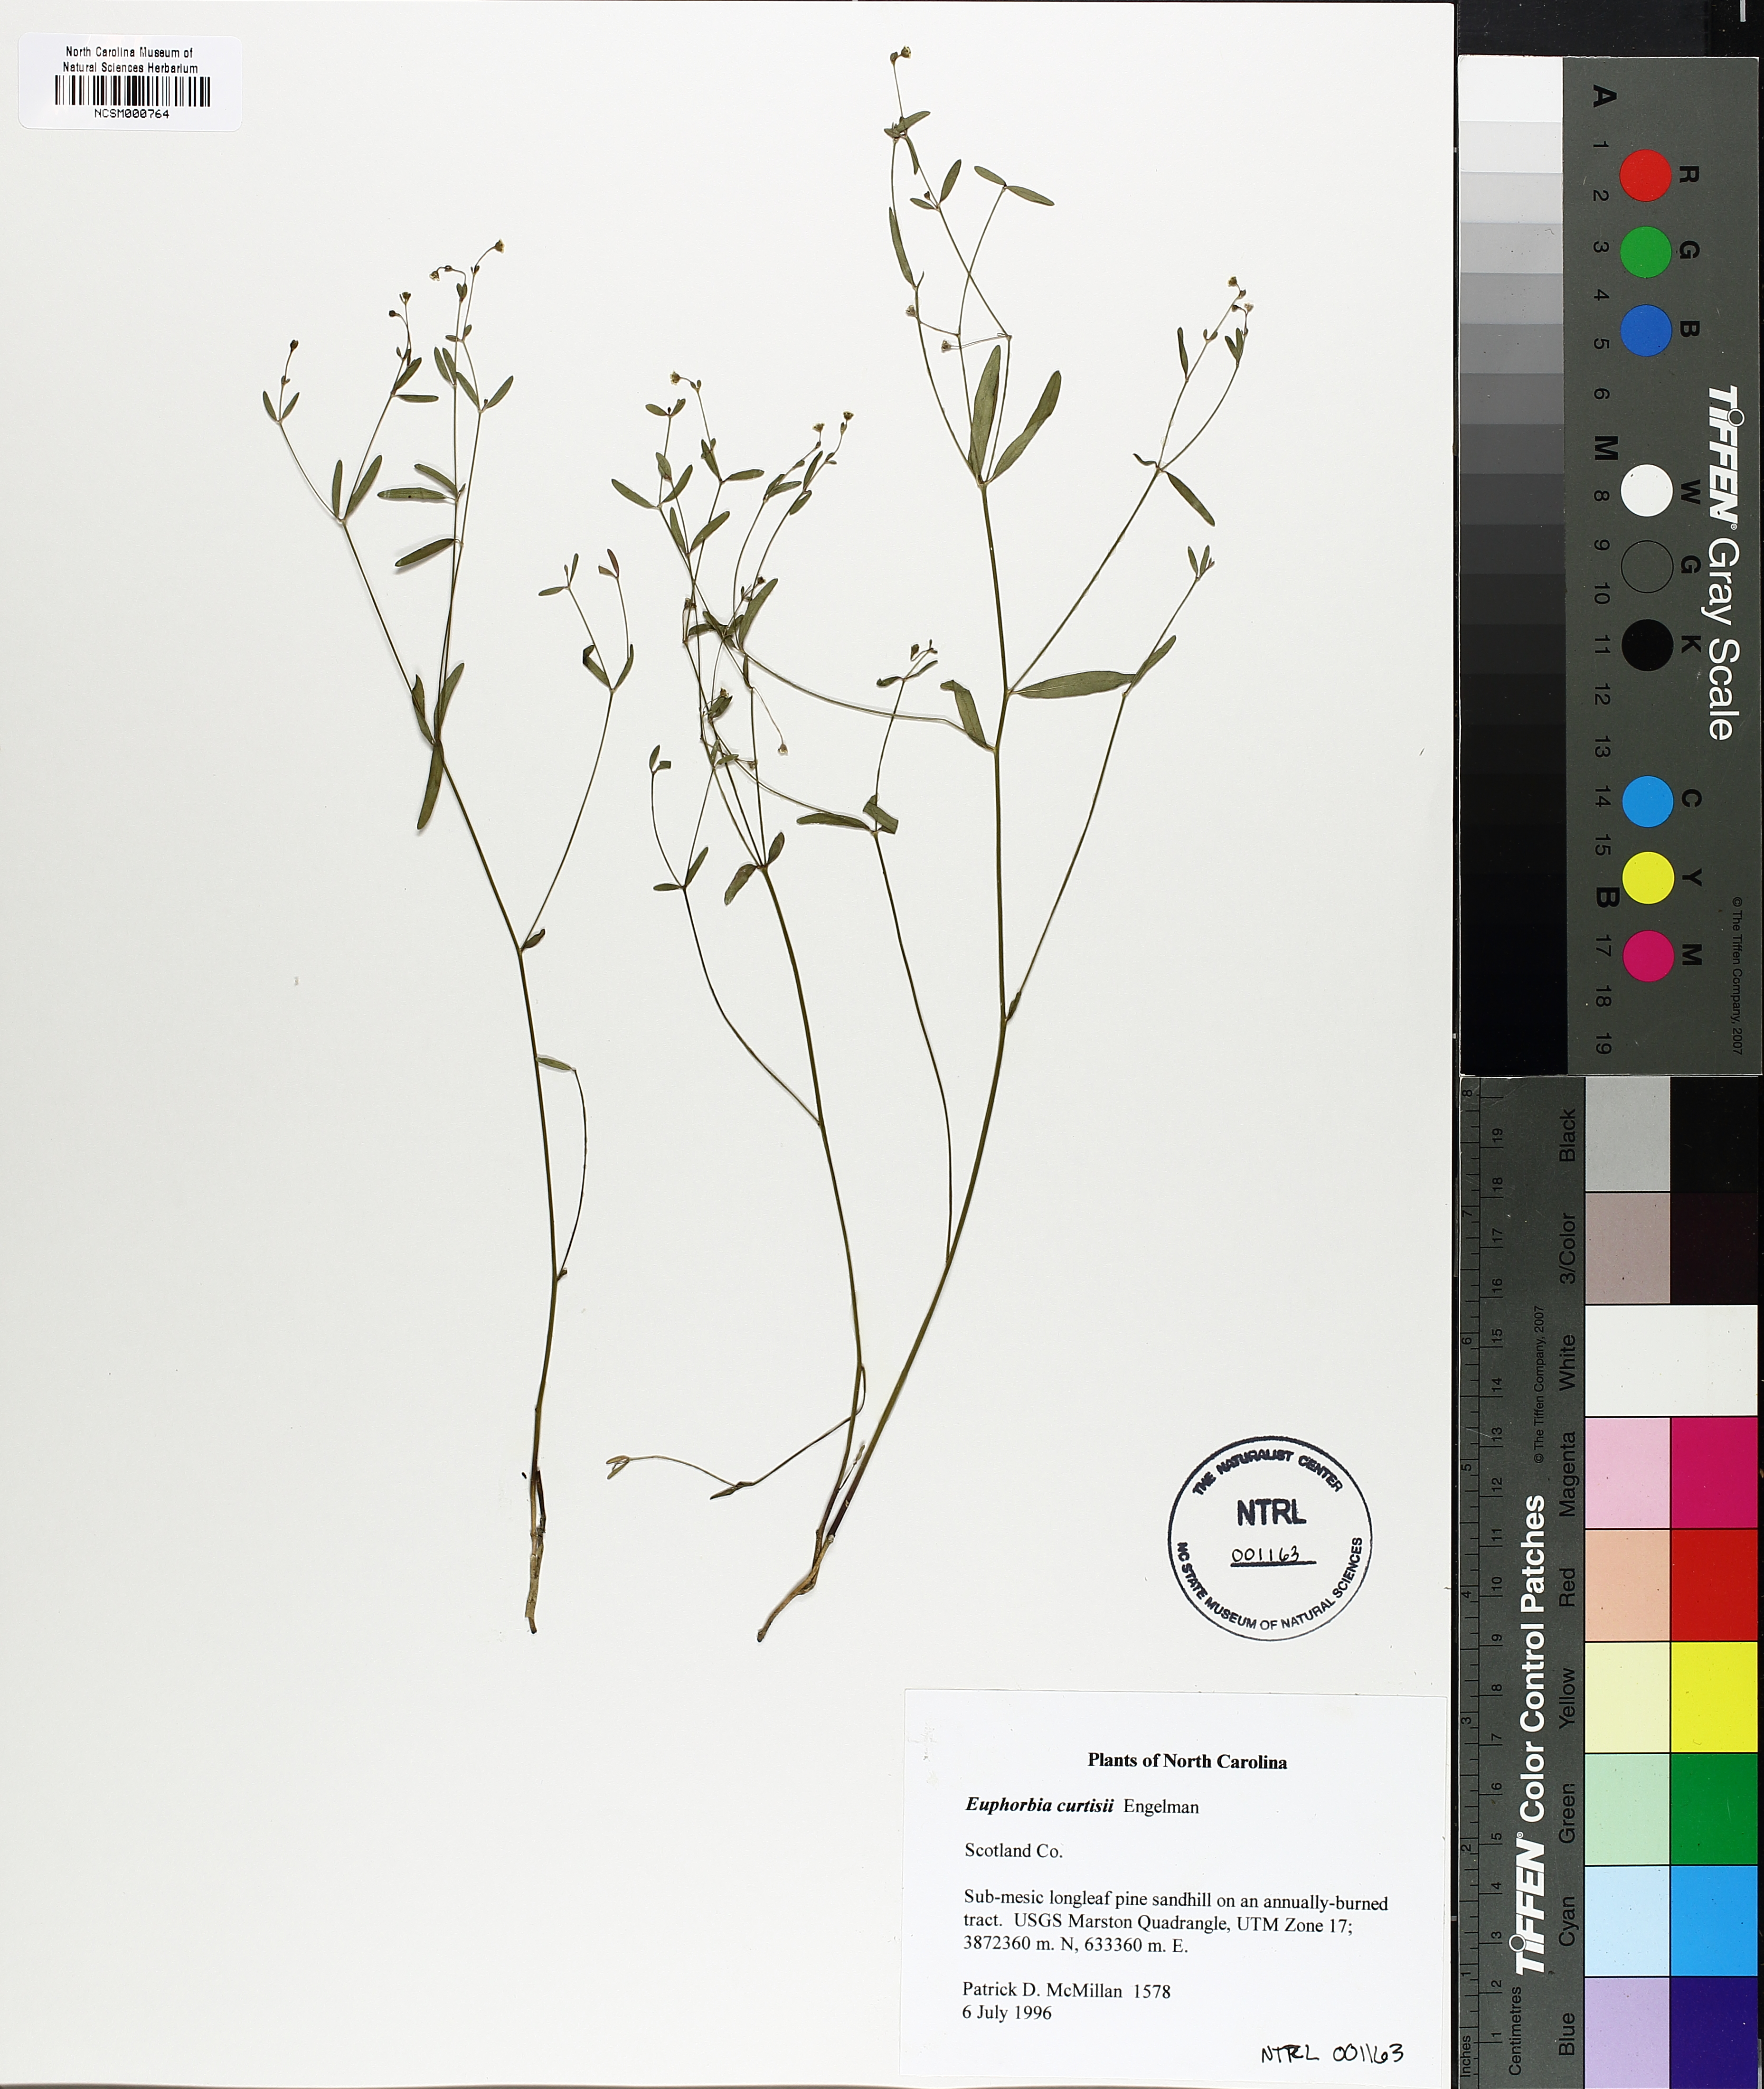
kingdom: Plantae
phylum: Tracheophyta
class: Magnoliopsida
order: Malpighiales
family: Euphorbiaceae
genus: Euphorbia
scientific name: Euphorbia curtisii
